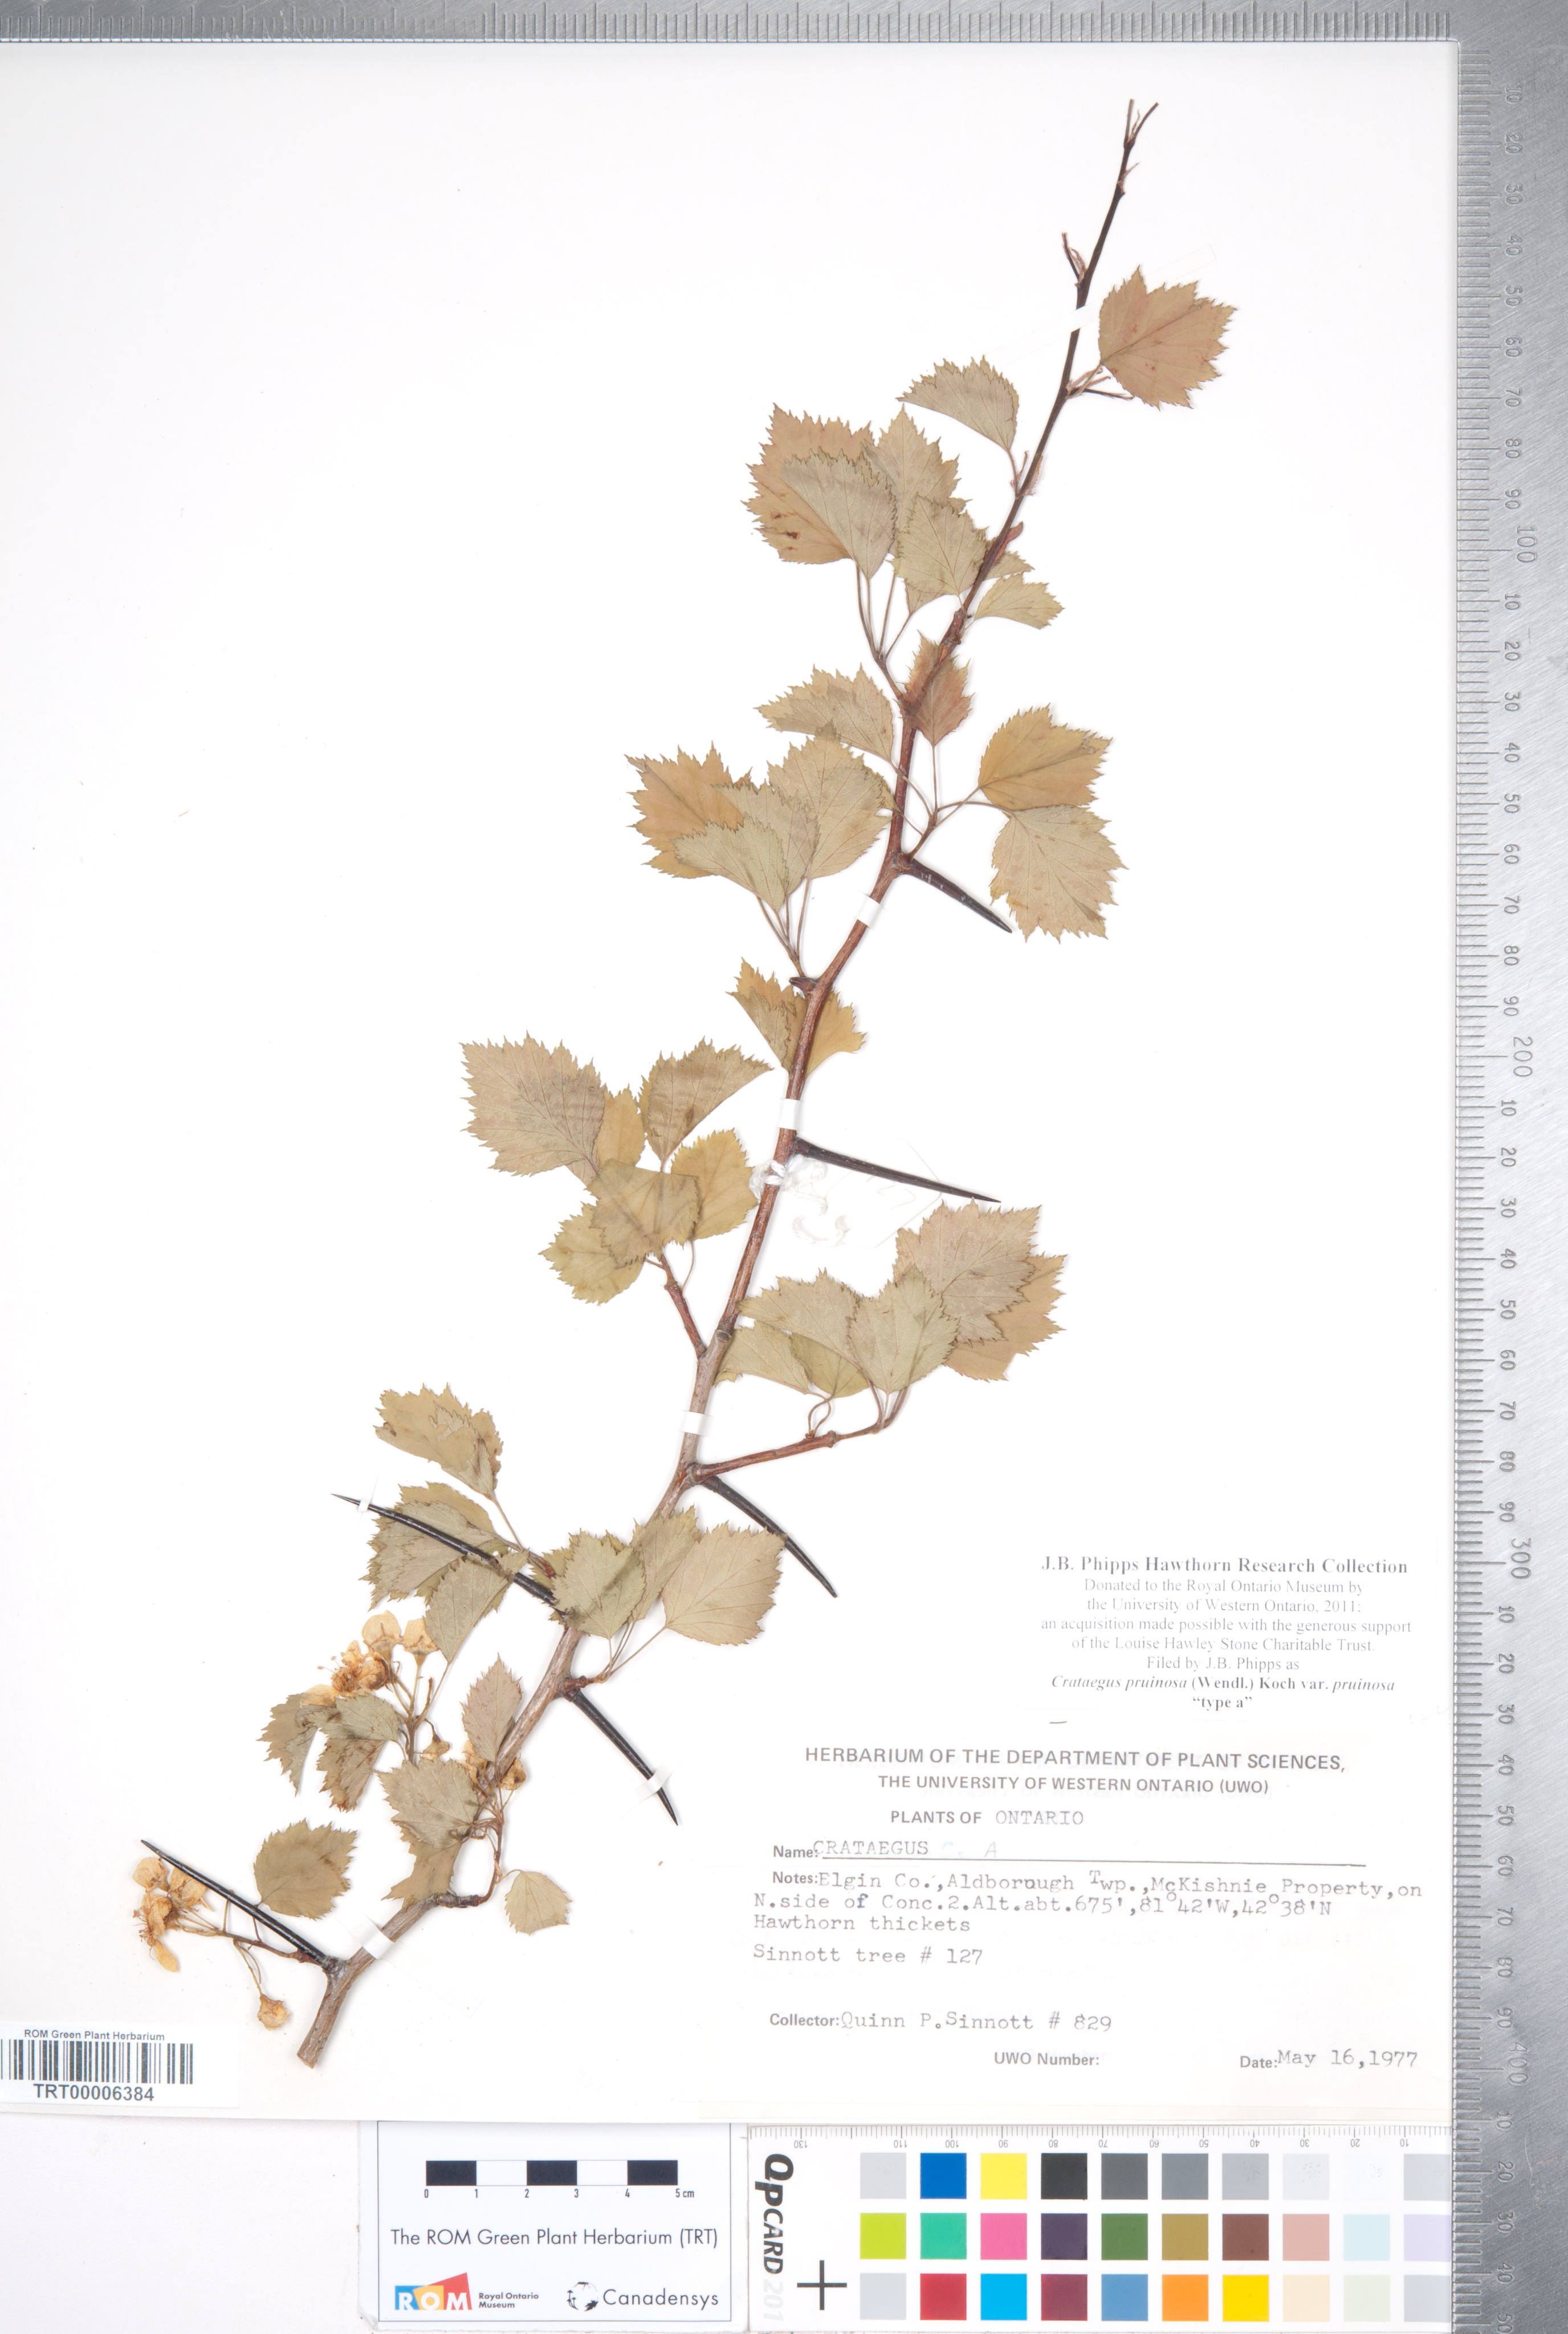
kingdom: Plantae
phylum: Tracheophyta
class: Magnoliopsida
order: Rosales
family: Rosaceae
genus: Crataegus
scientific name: Crataegus pruinosa
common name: Waxy-fruit hawthorn
